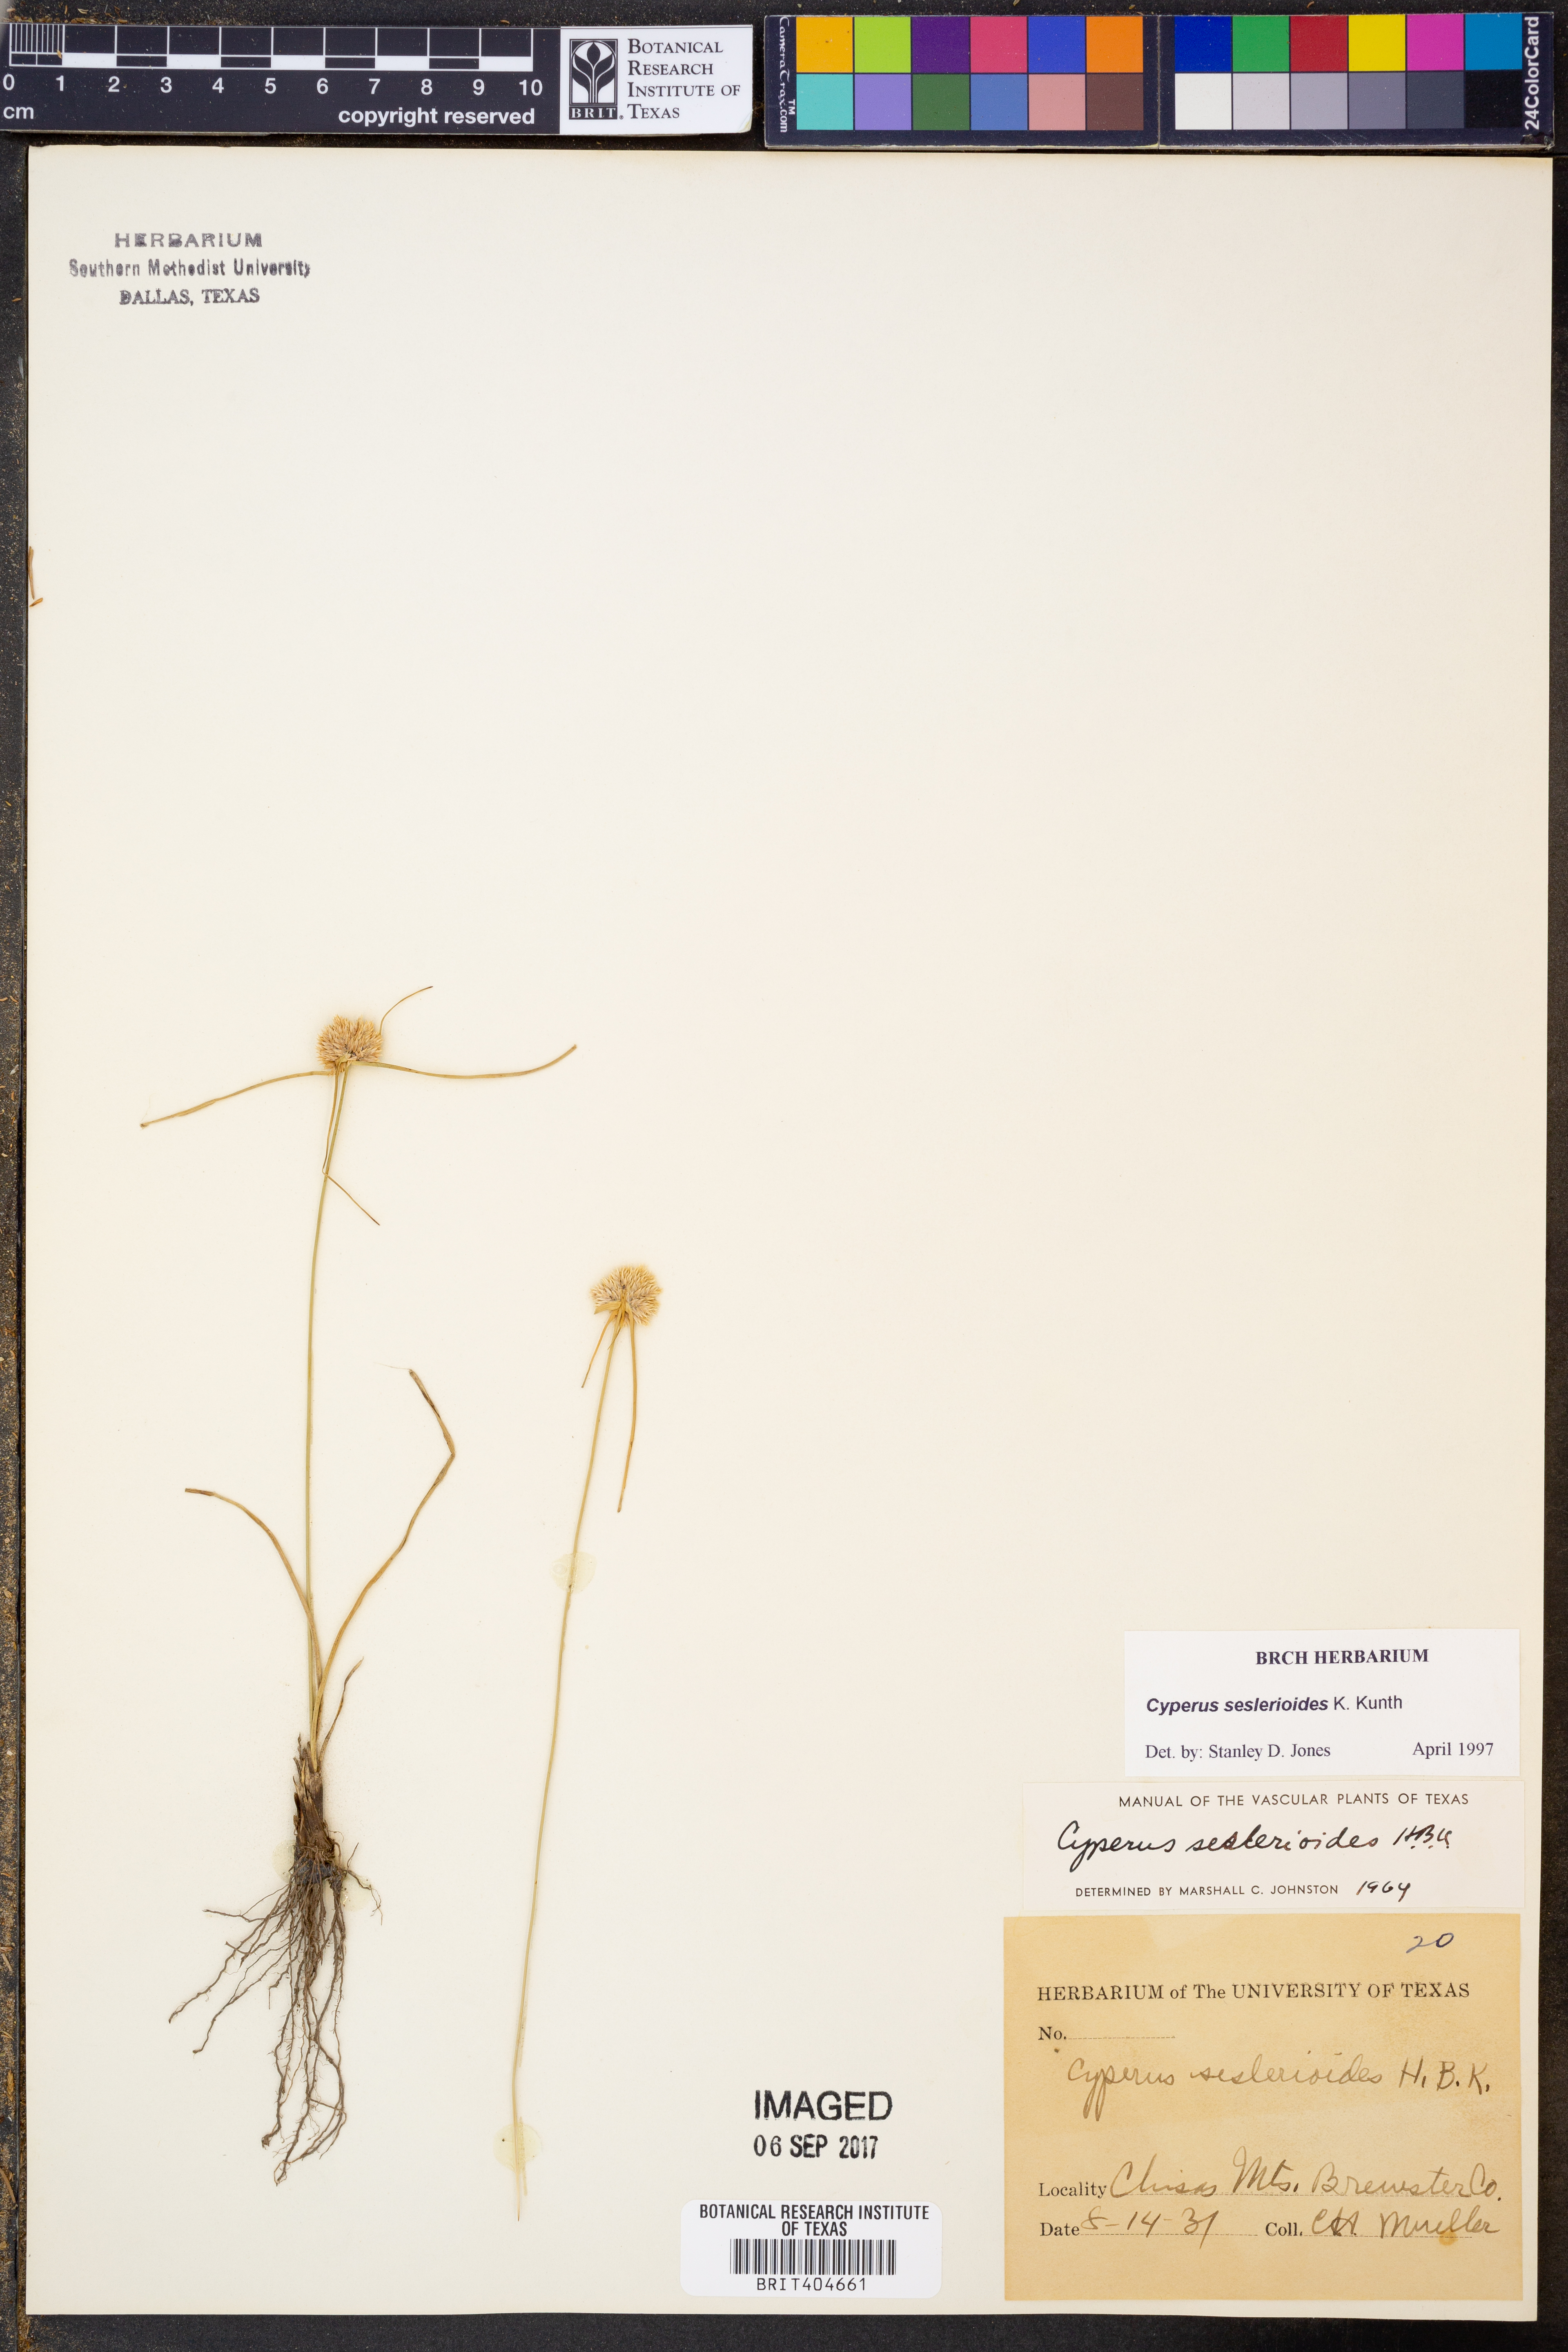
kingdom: Plantae
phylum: Tracheophyta
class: Liliopsida
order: Poales
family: Cyperaceae
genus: Cyperus
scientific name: Cyperus seslerioides
